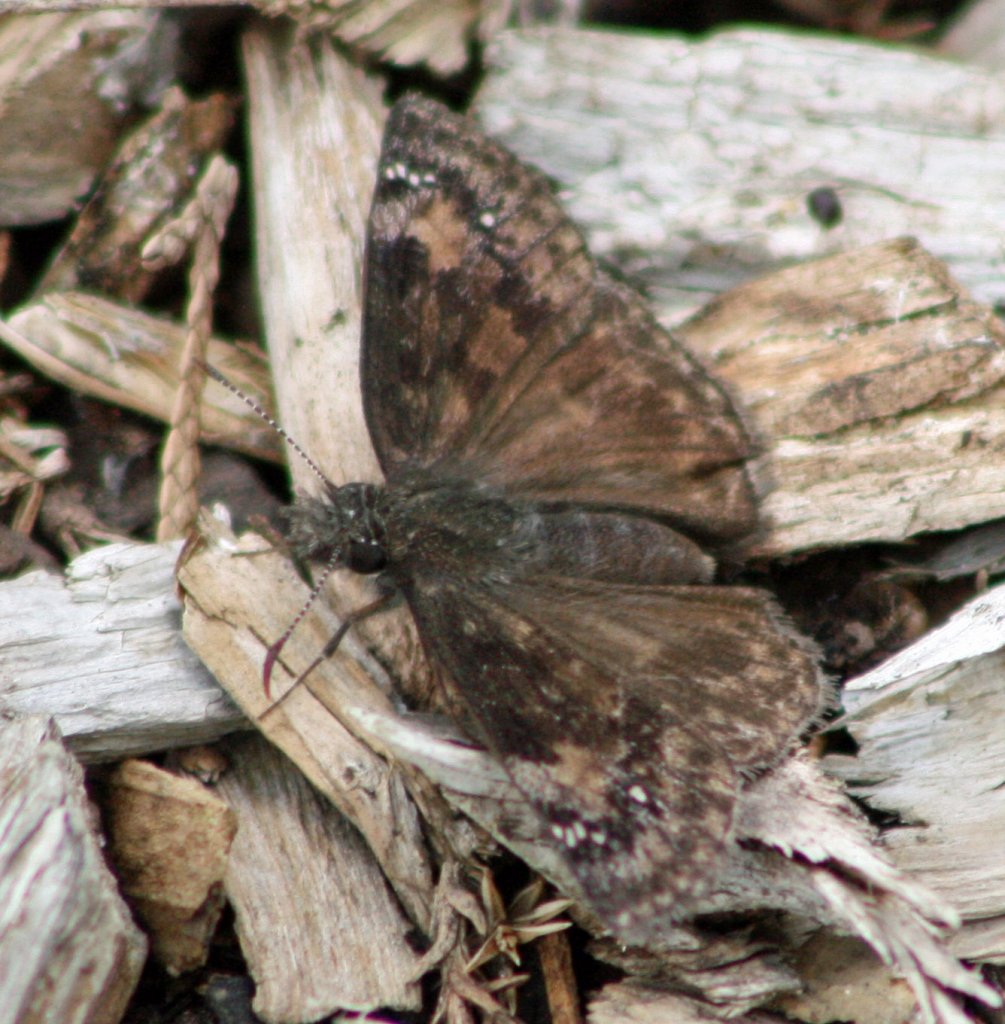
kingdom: Animalia
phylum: Arthropoda
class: Insecta
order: Lepidoptera
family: Hesperiidae
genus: Gesta
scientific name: Gesta
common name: Wild Indigo Duskywing
